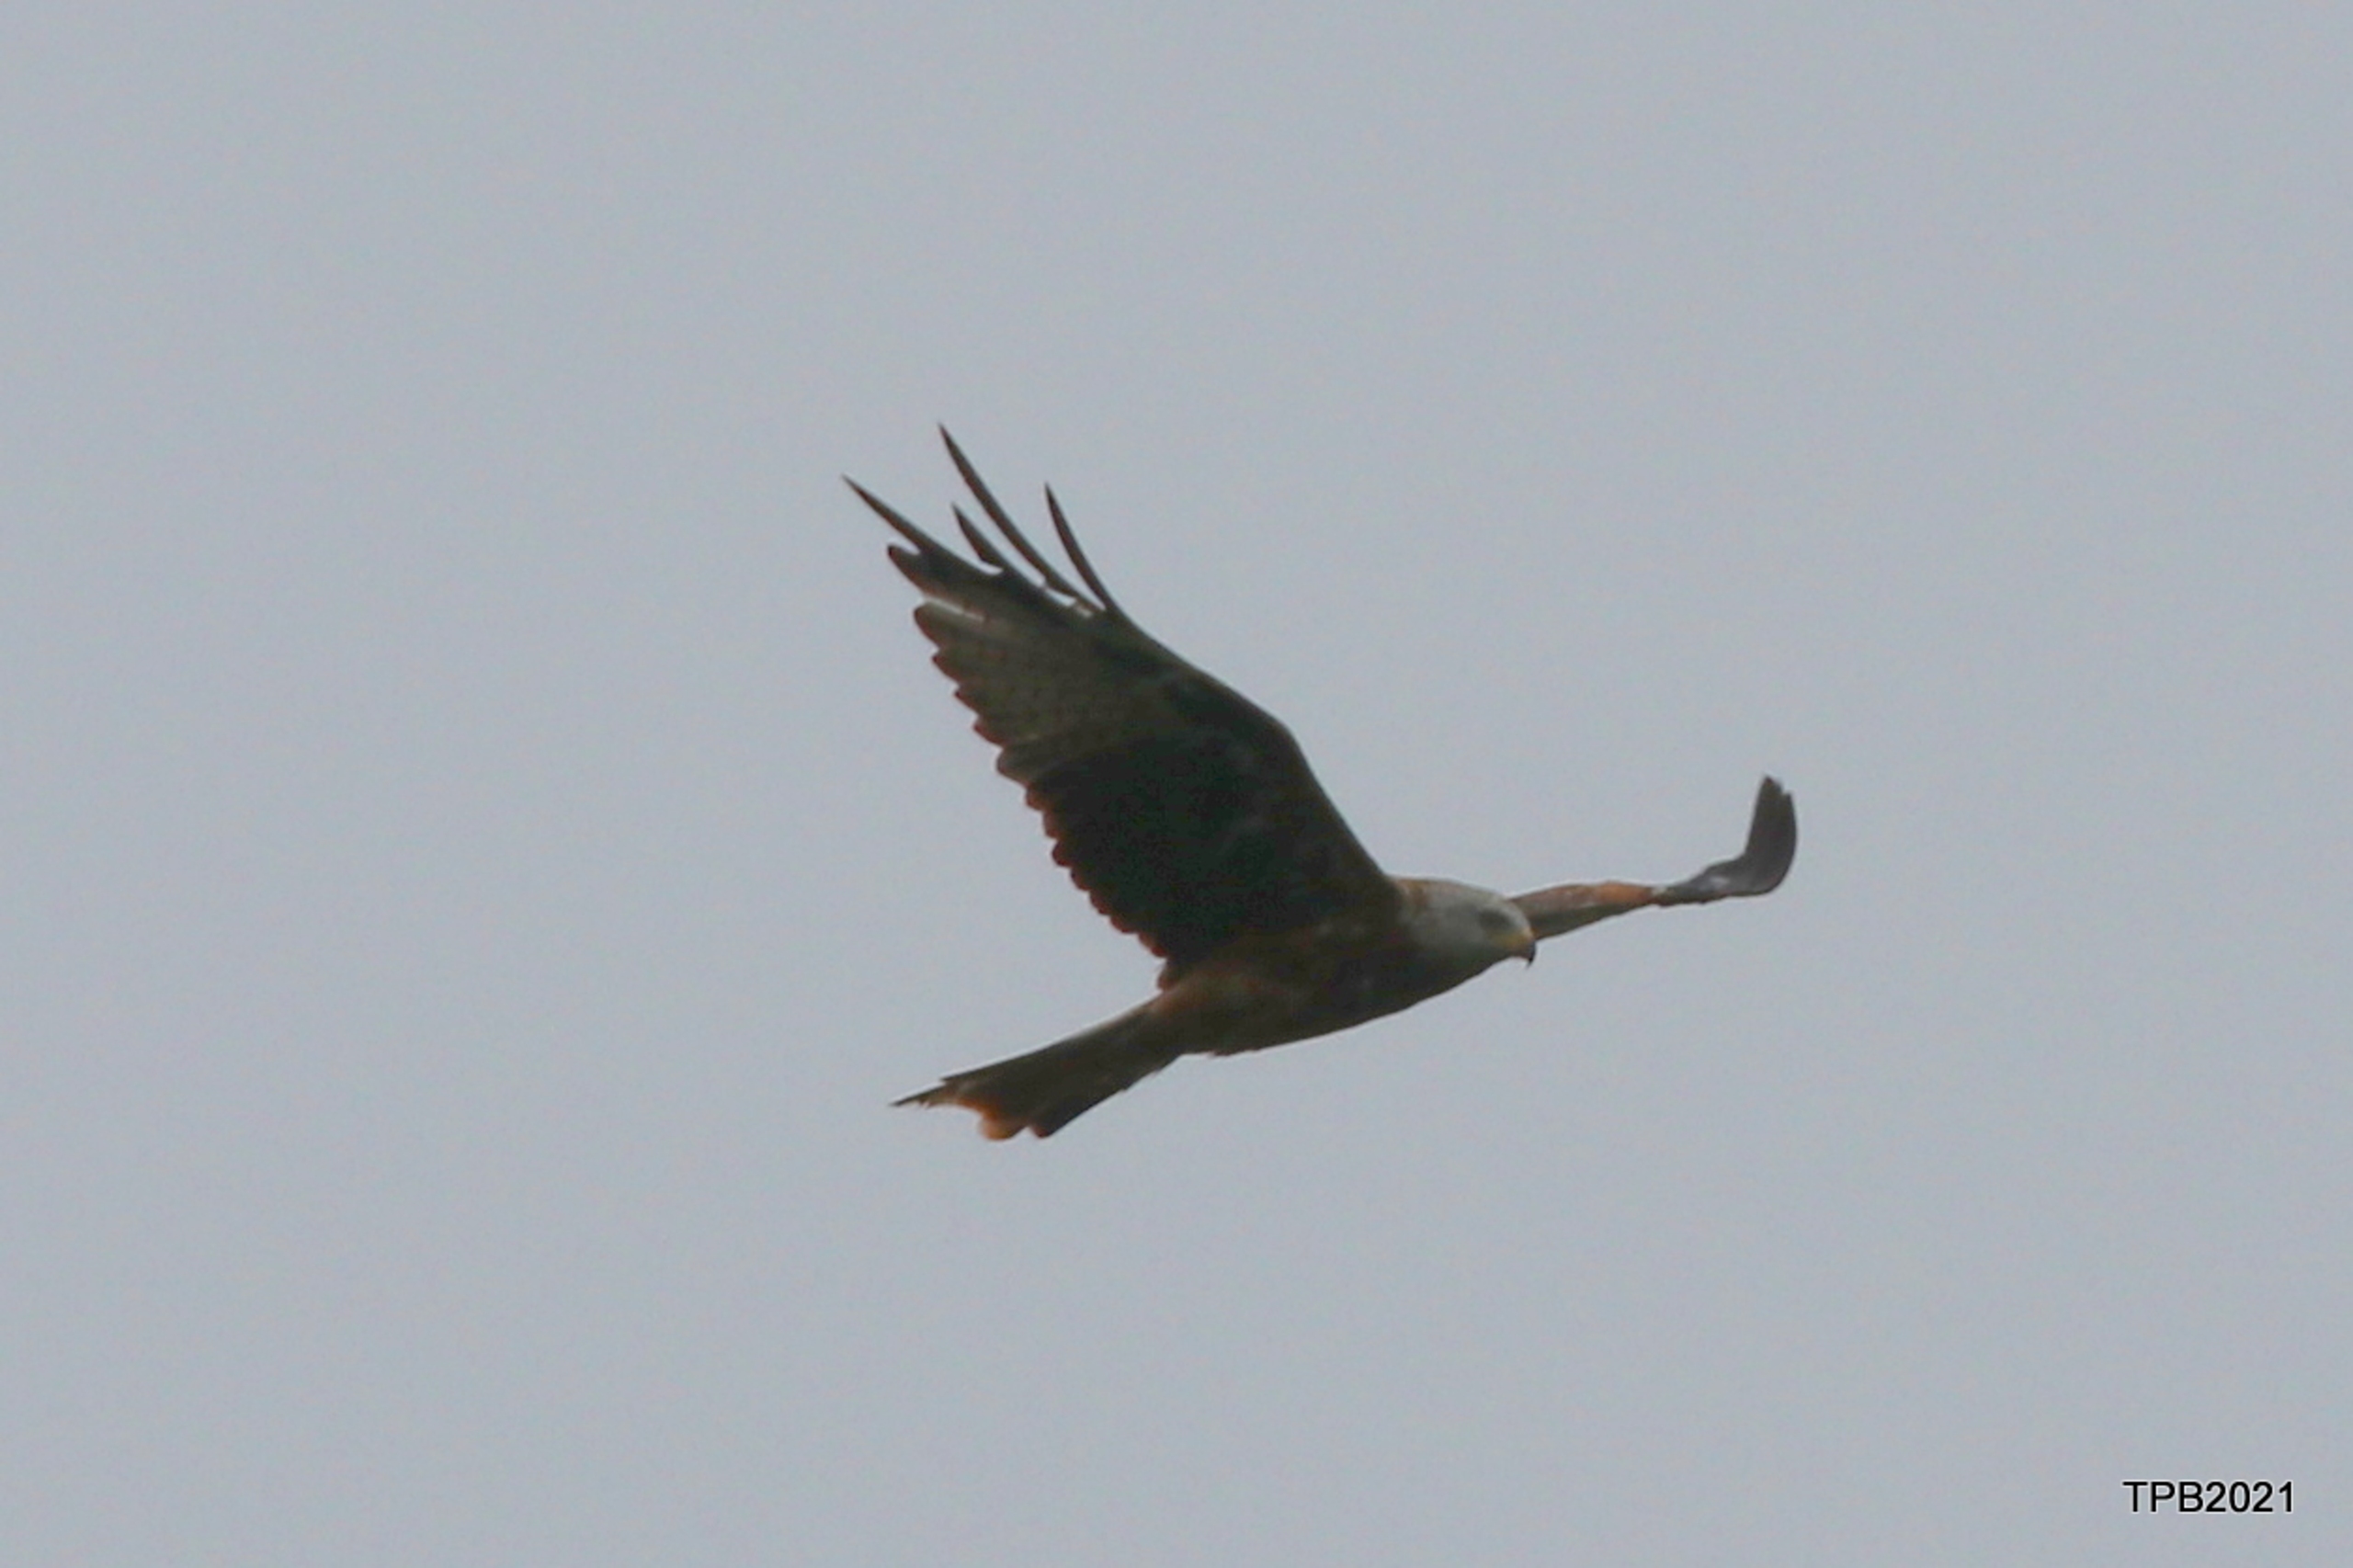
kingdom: Animalia
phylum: Chordata
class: Aves
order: Accipitriformes
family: Accipitridae
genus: Milvus
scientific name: Milvus milvus
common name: Rød glente
